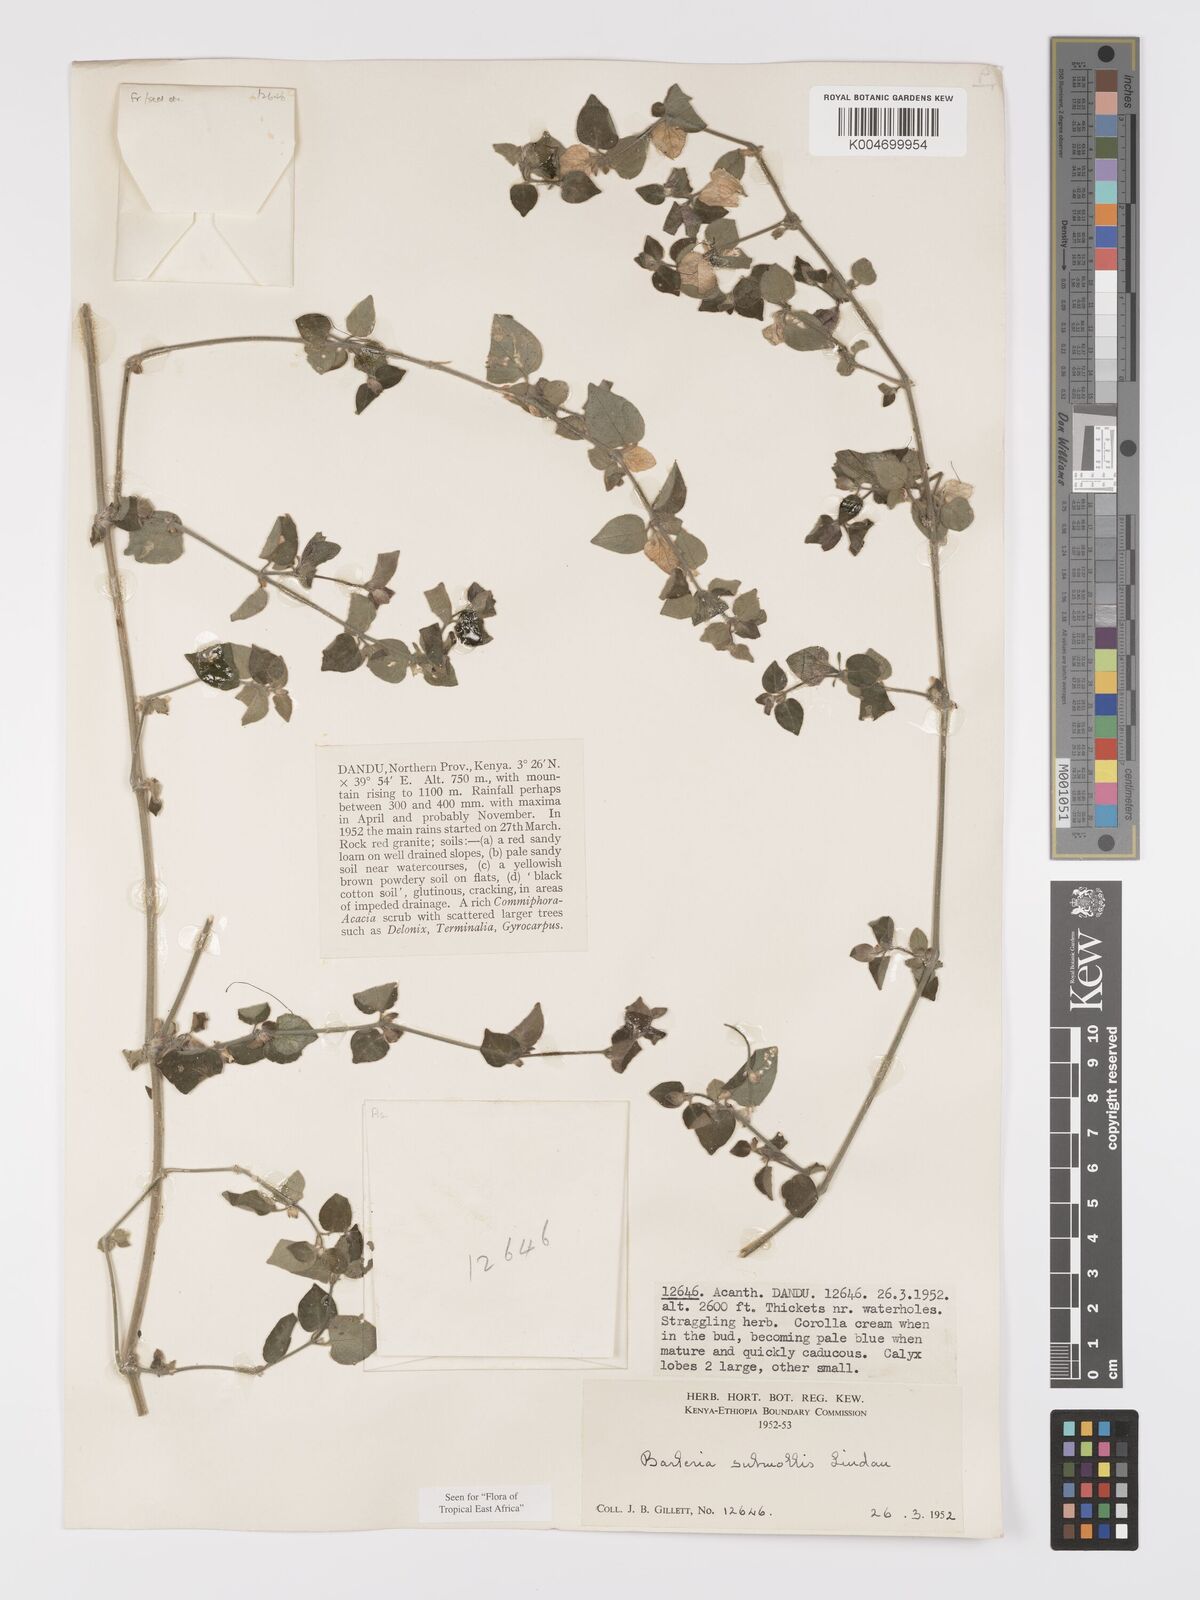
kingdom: Plantae
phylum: Tracheophyta
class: Magnoliopsida
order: Lamiales
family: Acanthaceae
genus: Barleria
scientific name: Barleria submollis
